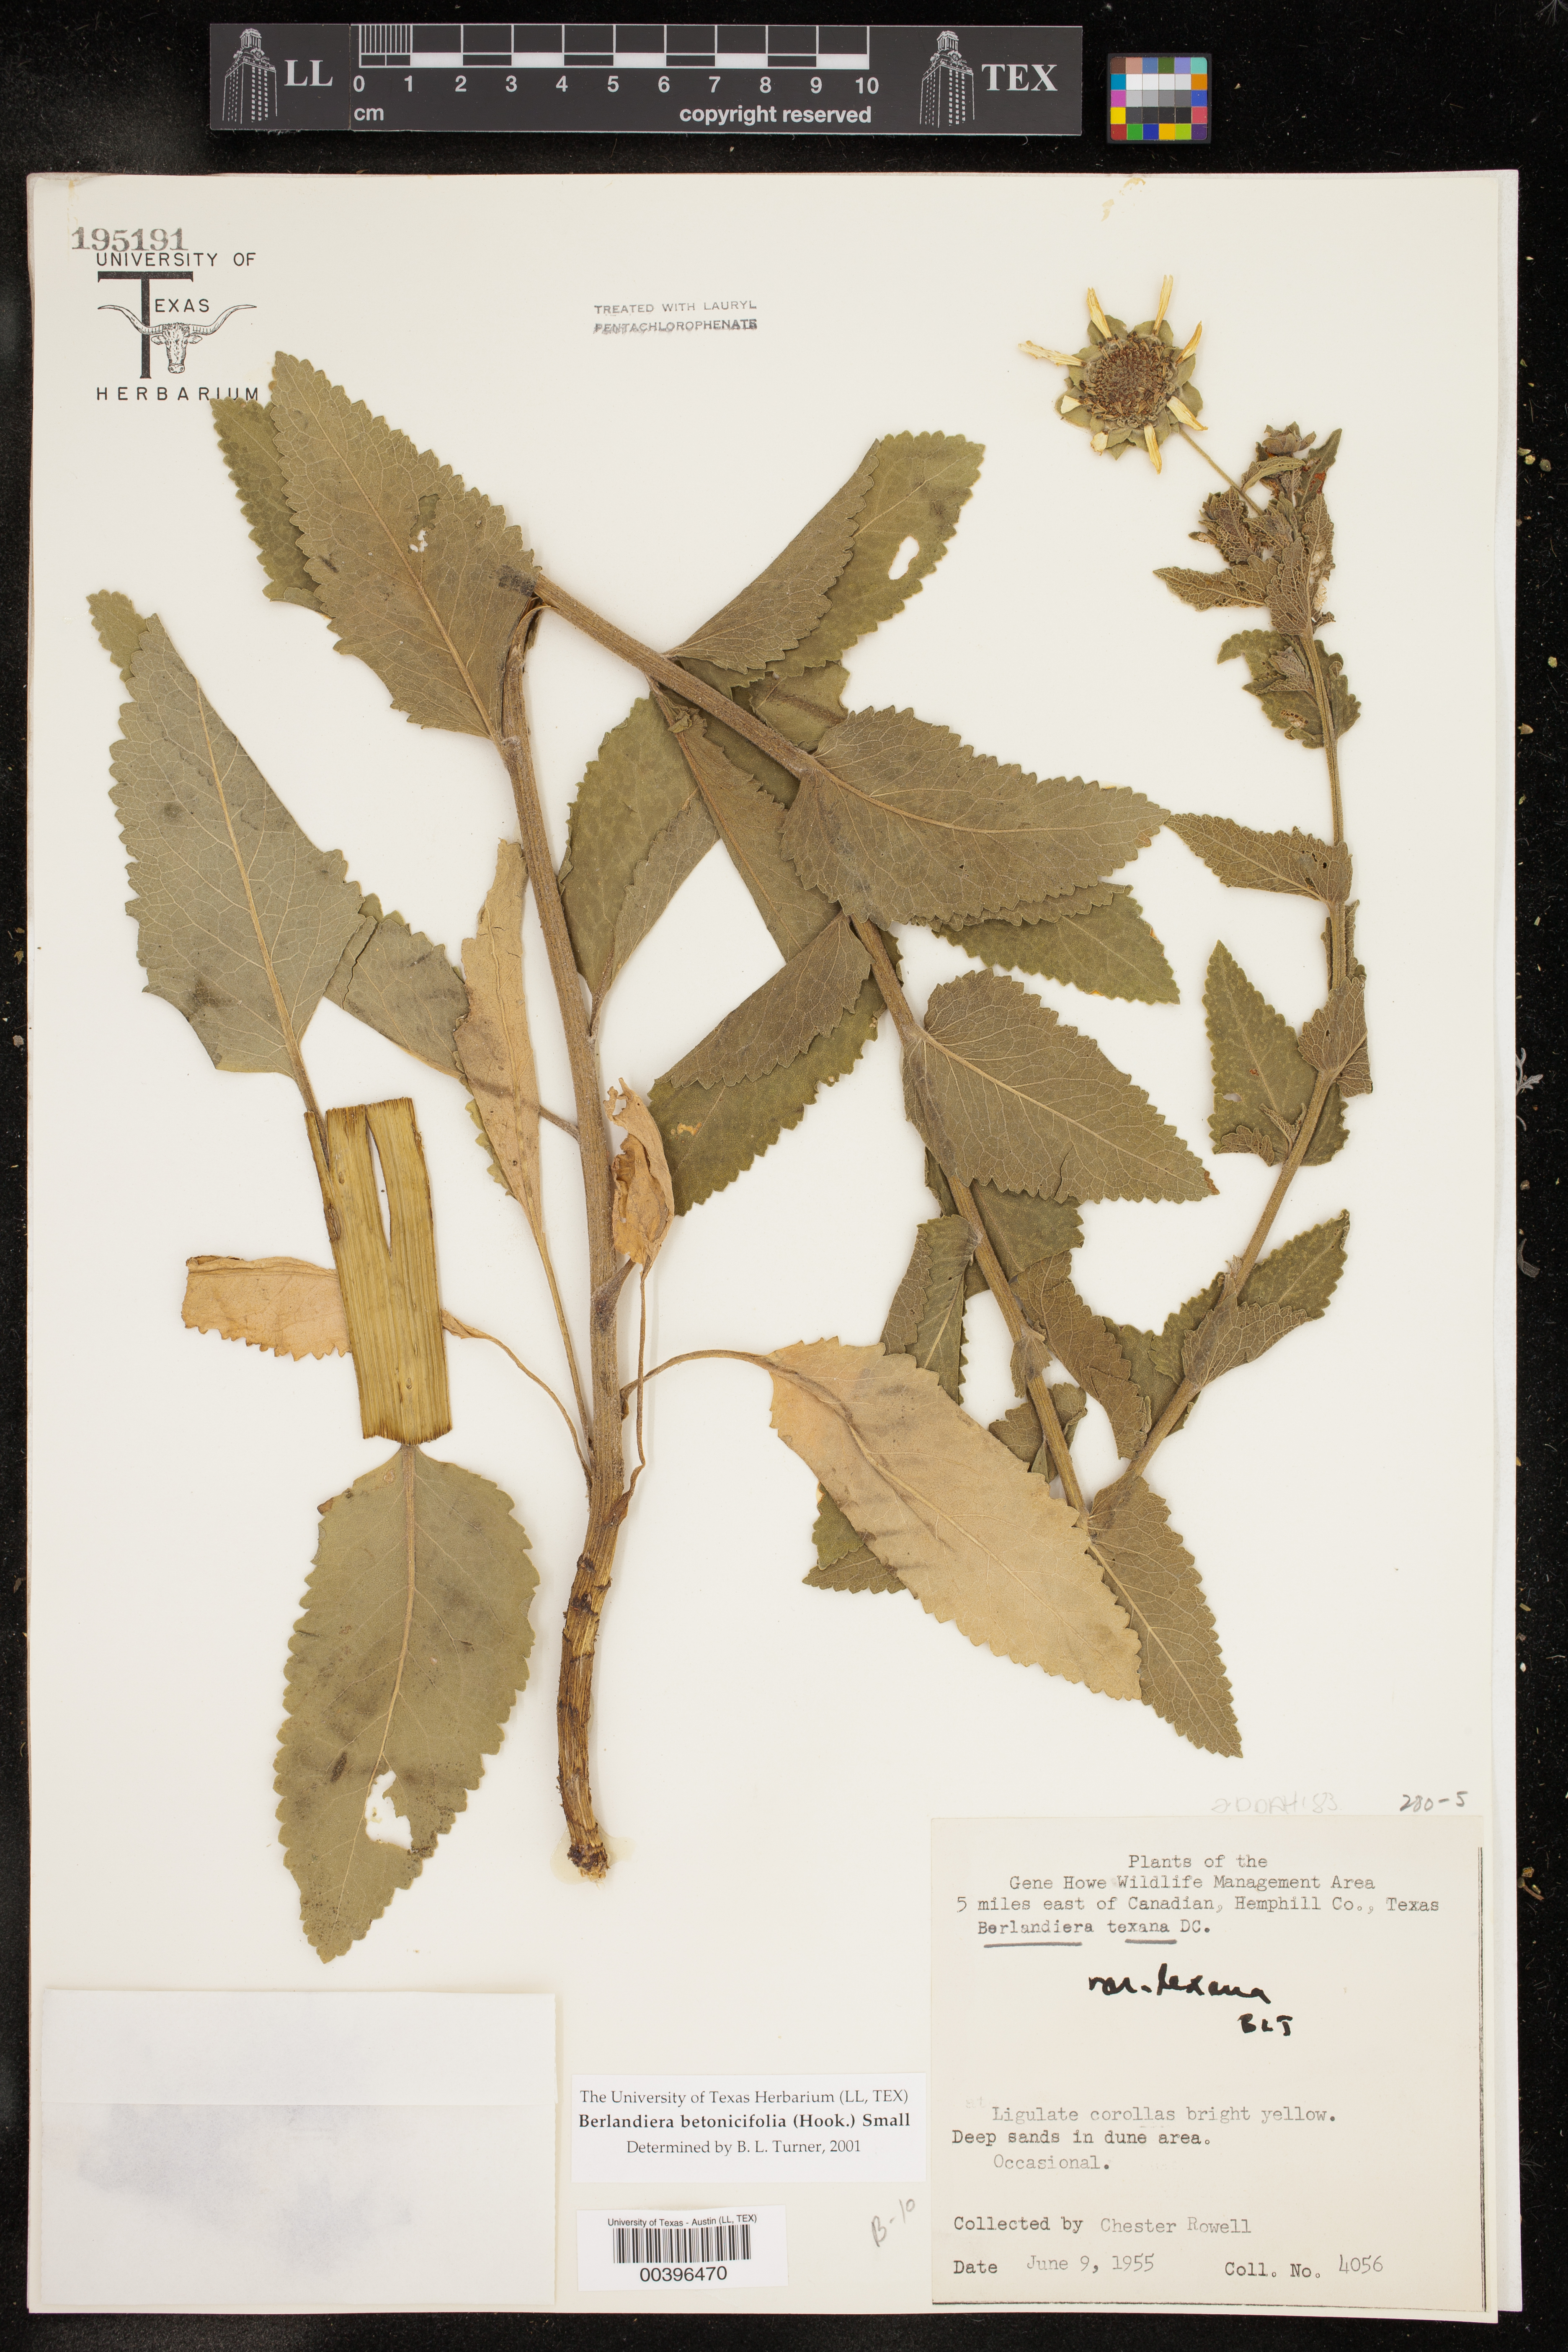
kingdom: Plantae
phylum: Tracheophyta
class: Magnoliopsida
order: Asterales
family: Asteraceae
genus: Berlandiera
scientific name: Berlandiera betonicifolia
